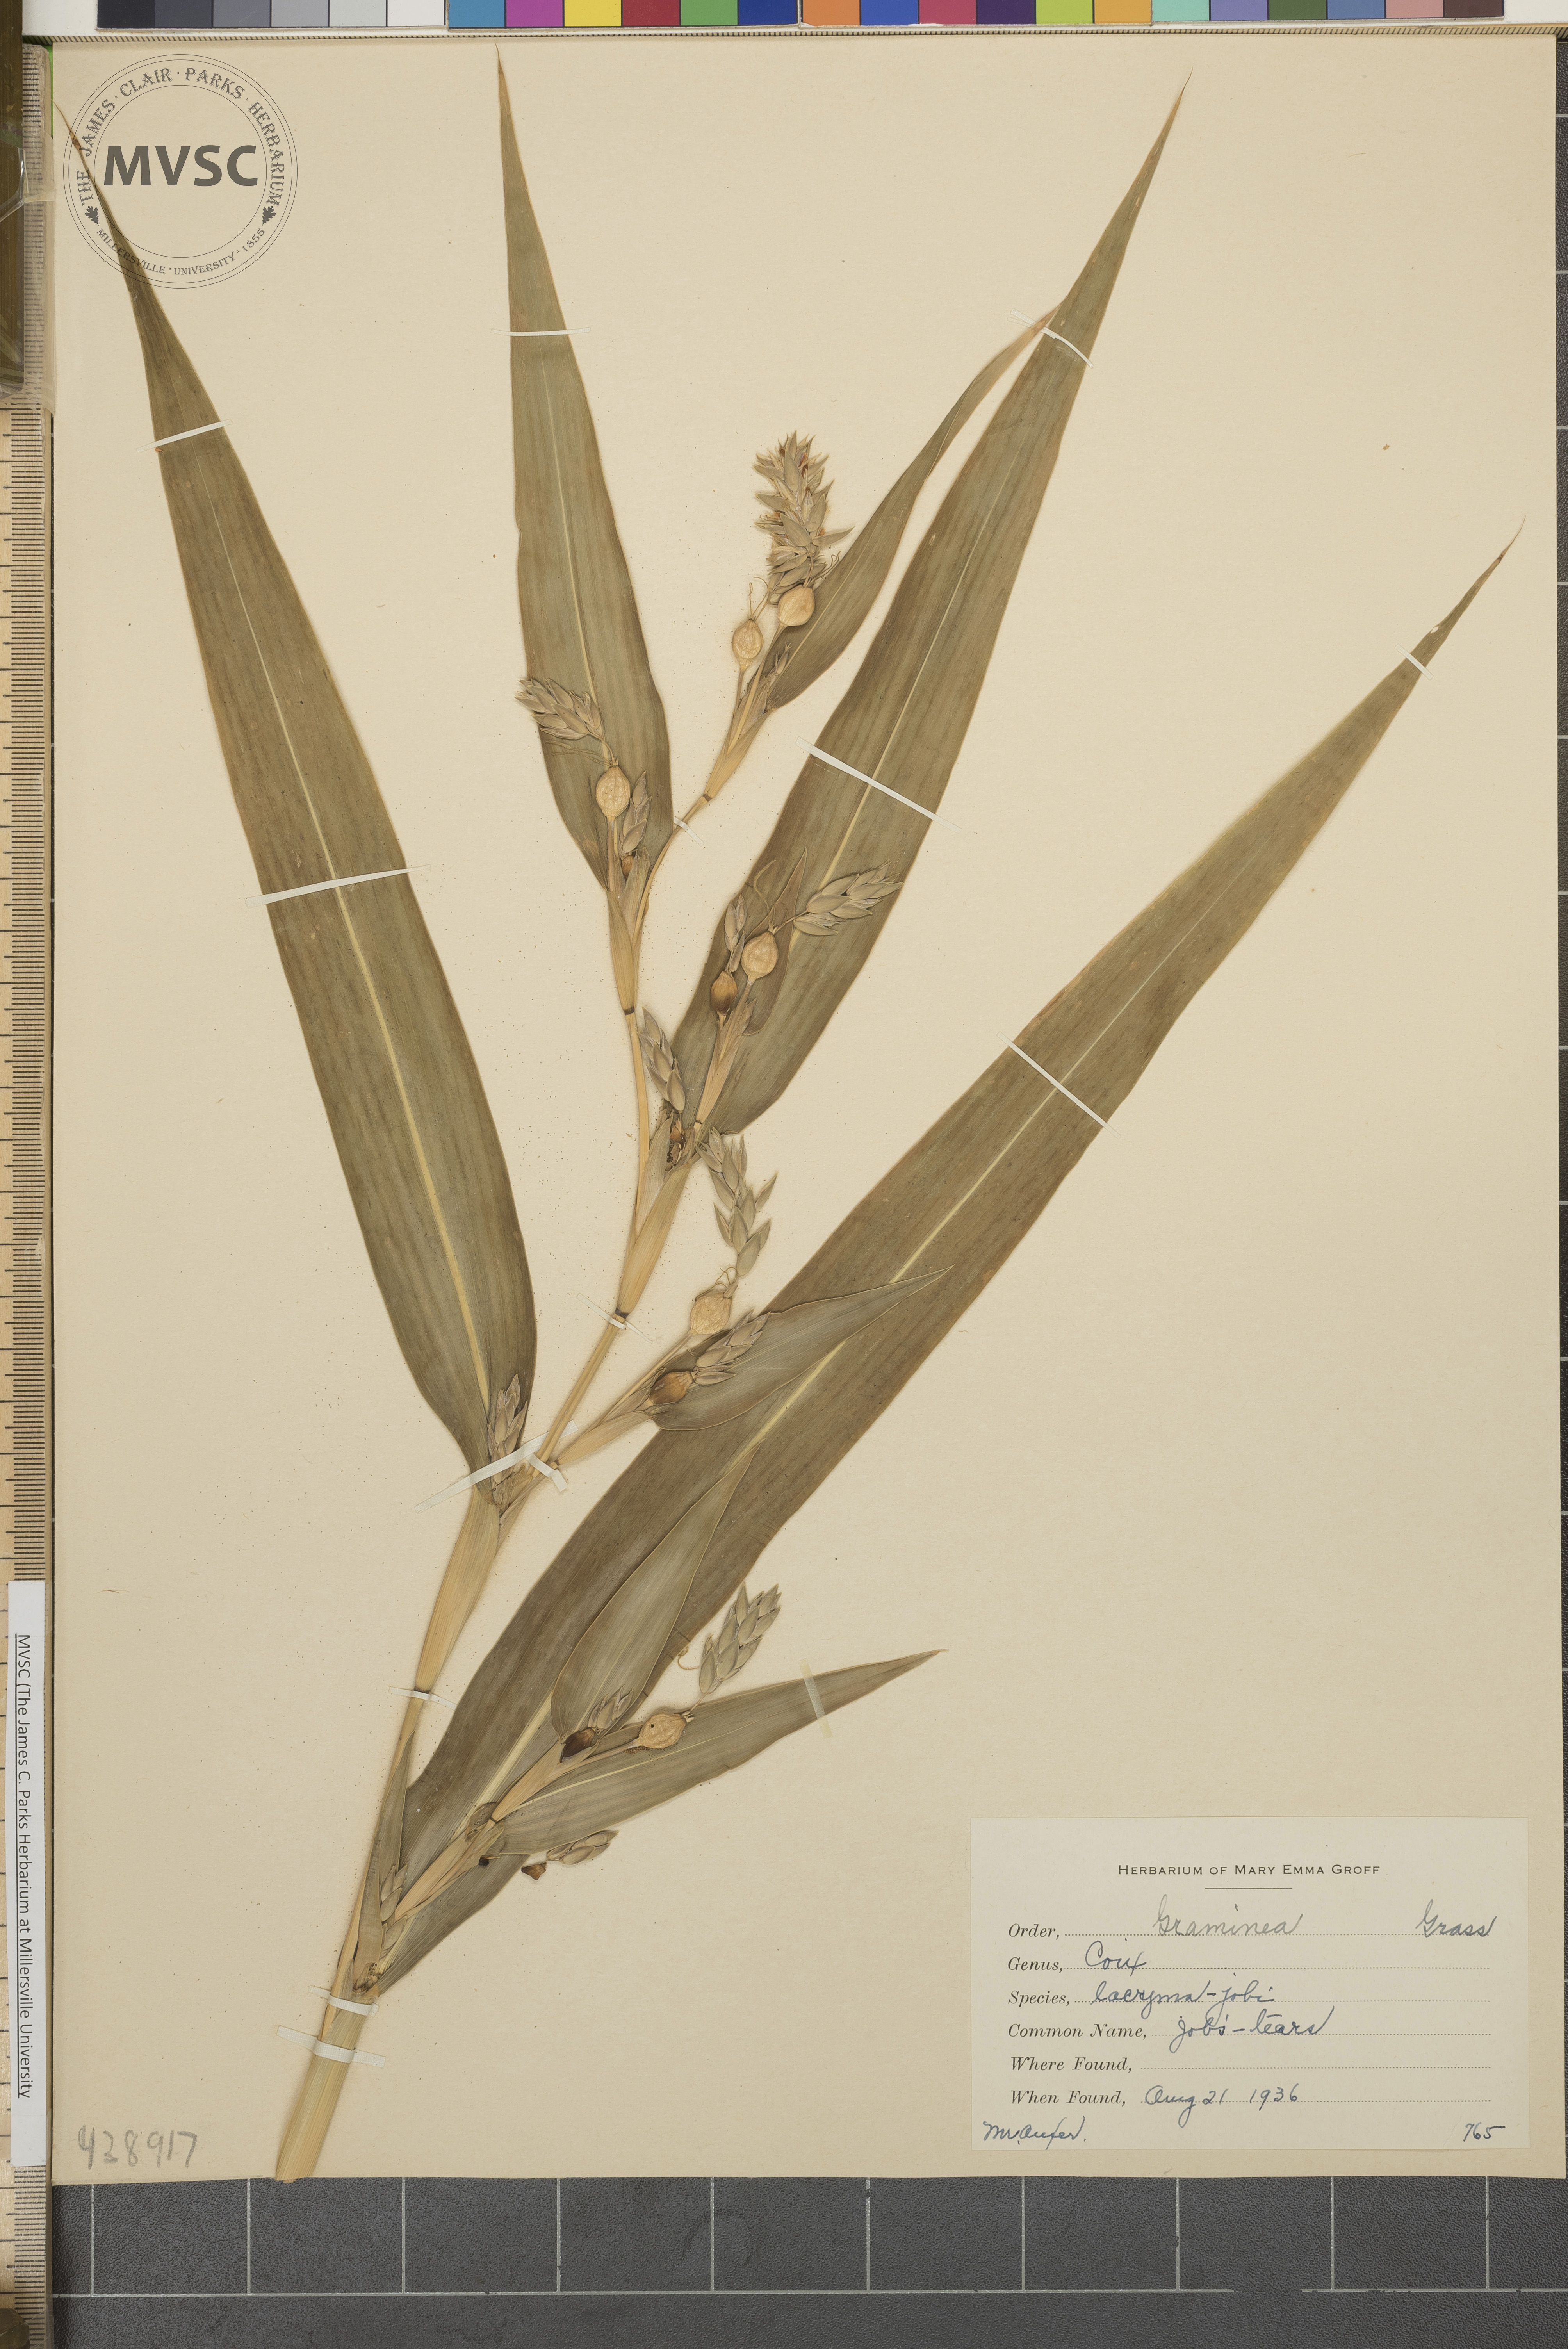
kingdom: Plantae
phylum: Tracheophyta
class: Liliopsida
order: Poales
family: Poaceae
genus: Coix
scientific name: Coix lacryma-jobi
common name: Job's tears
